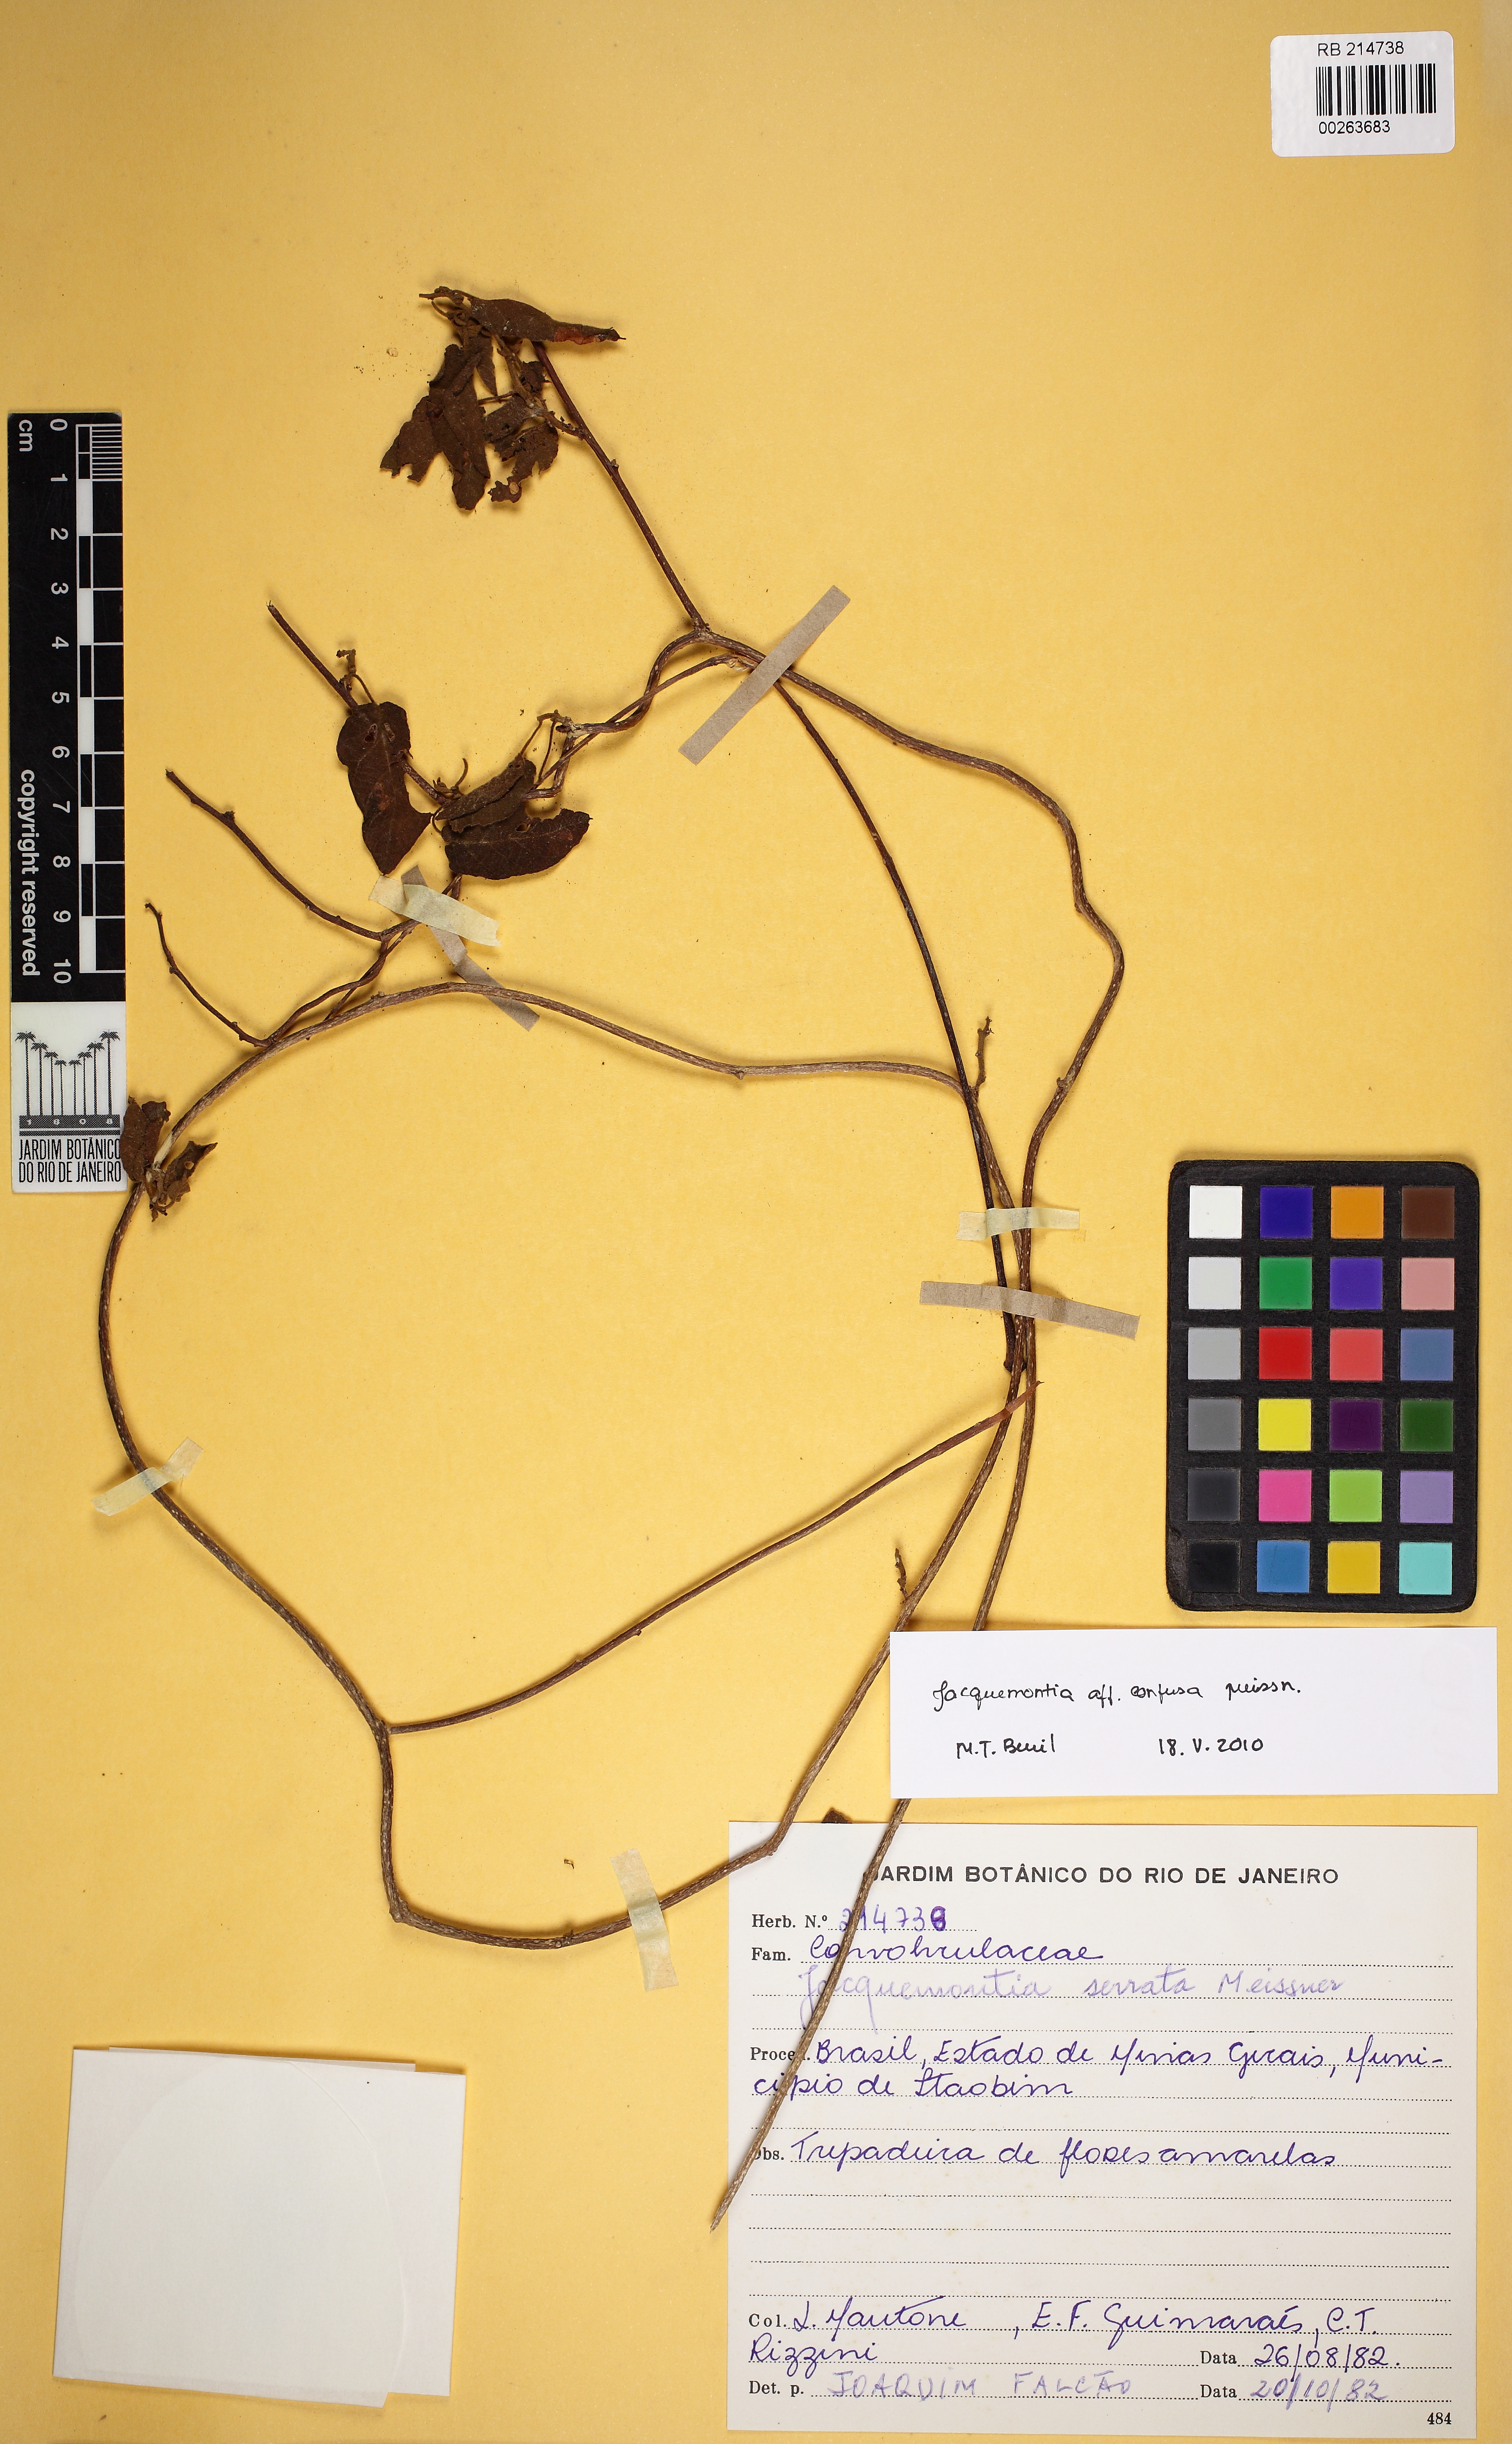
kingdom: Plantae
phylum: Tracheophyta
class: Magnoliopsida
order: Solanales
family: Convolvulaceae
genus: Jacquemontia
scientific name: Jacquemontia nodiflora
